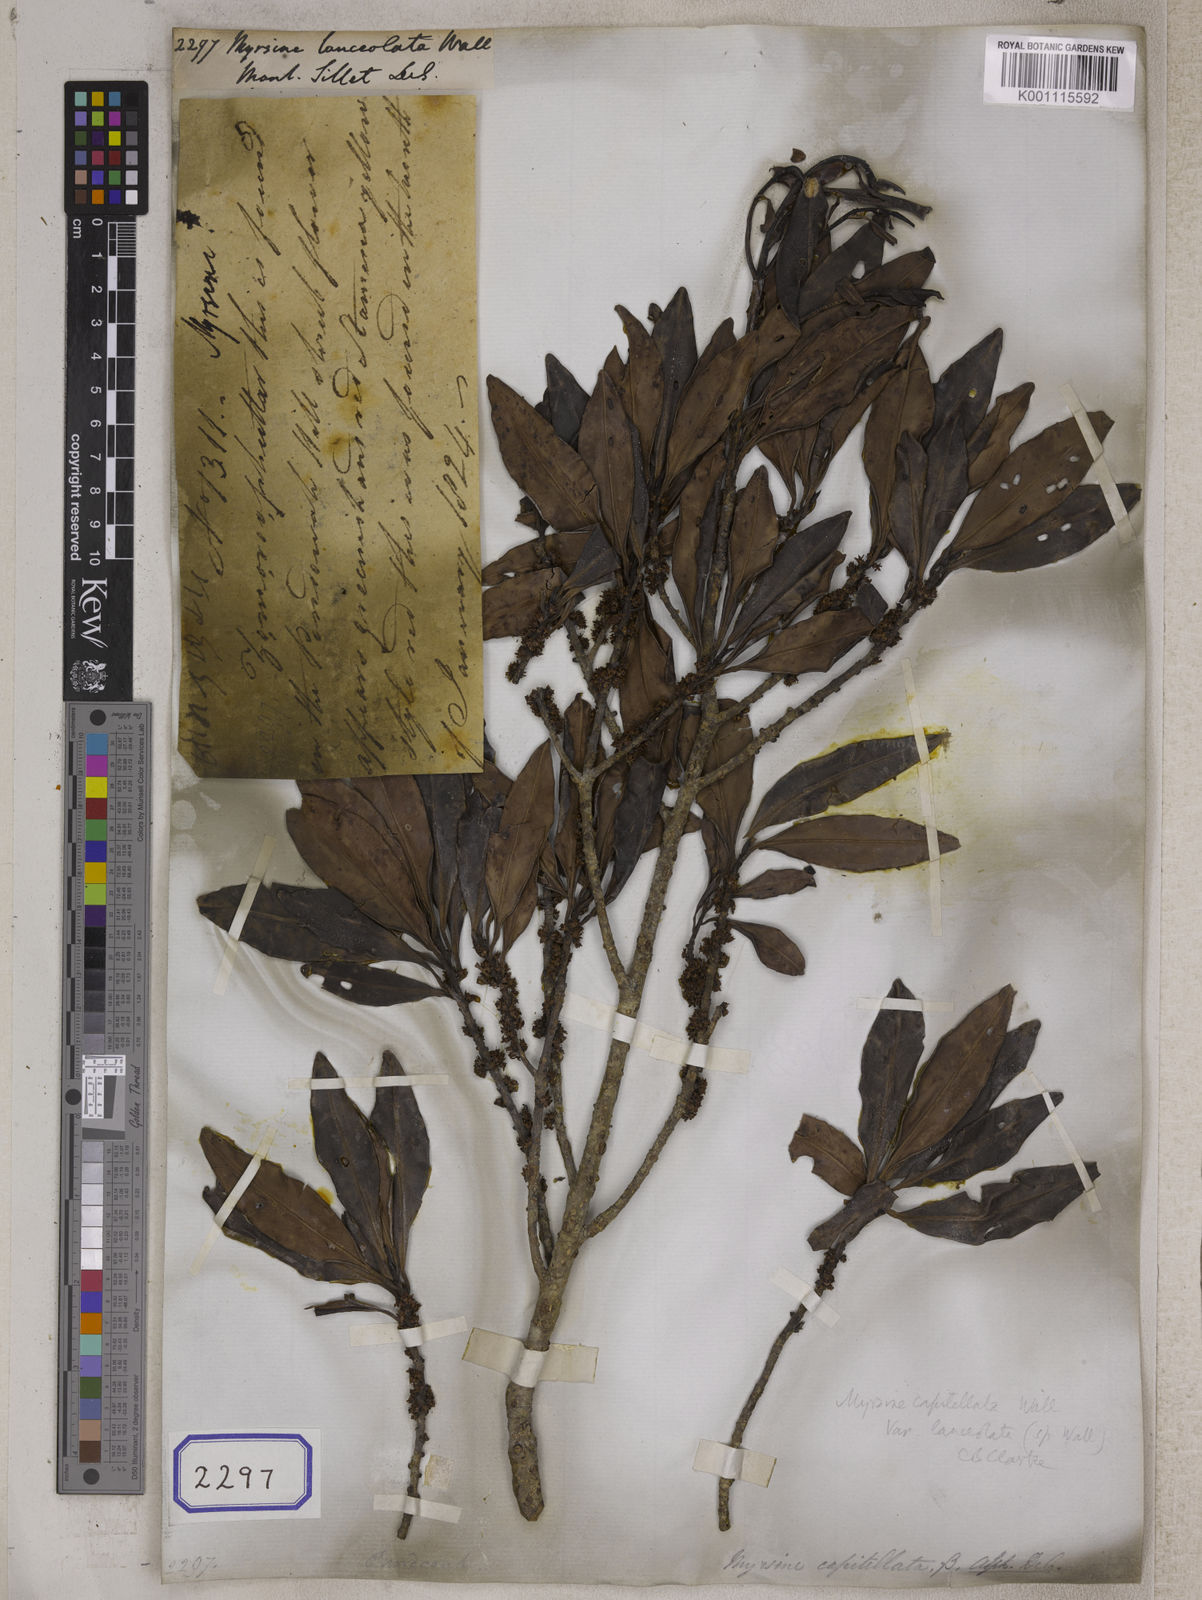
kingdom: Plantae
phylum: Tracheophyta
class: Magnoliopsida
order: Ericales
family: Primulaceae
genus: Myrsine
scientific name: Myrsine capitellata
